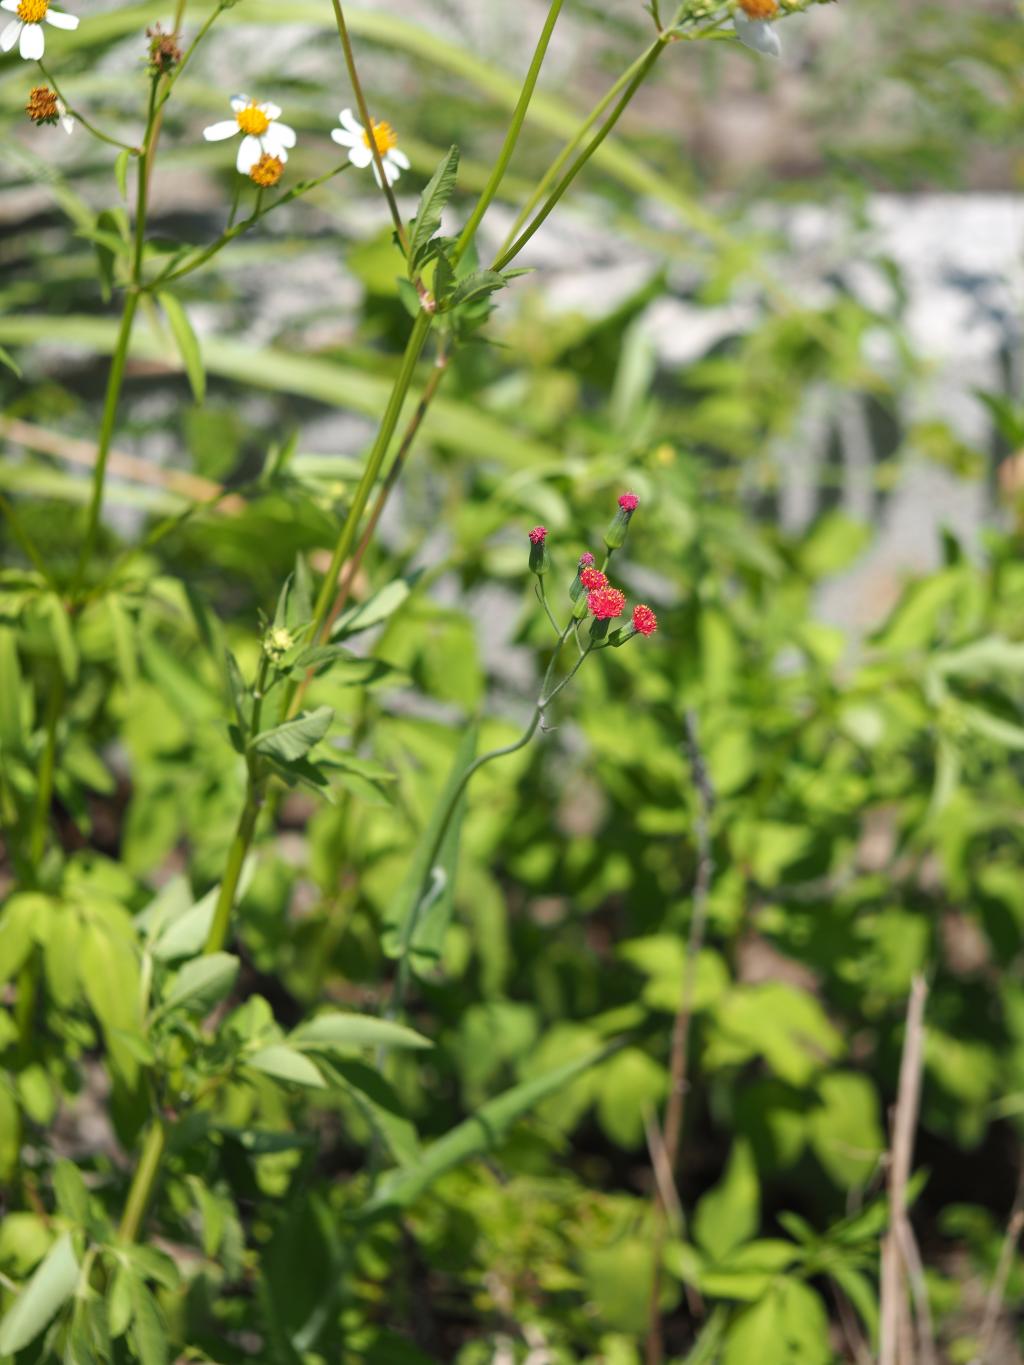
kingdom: Plantae
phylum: Tracheophyta
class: Magnoliopsida
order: Asterales
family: Asteraceae
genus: Emilia
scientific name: Emilia fosbergii
